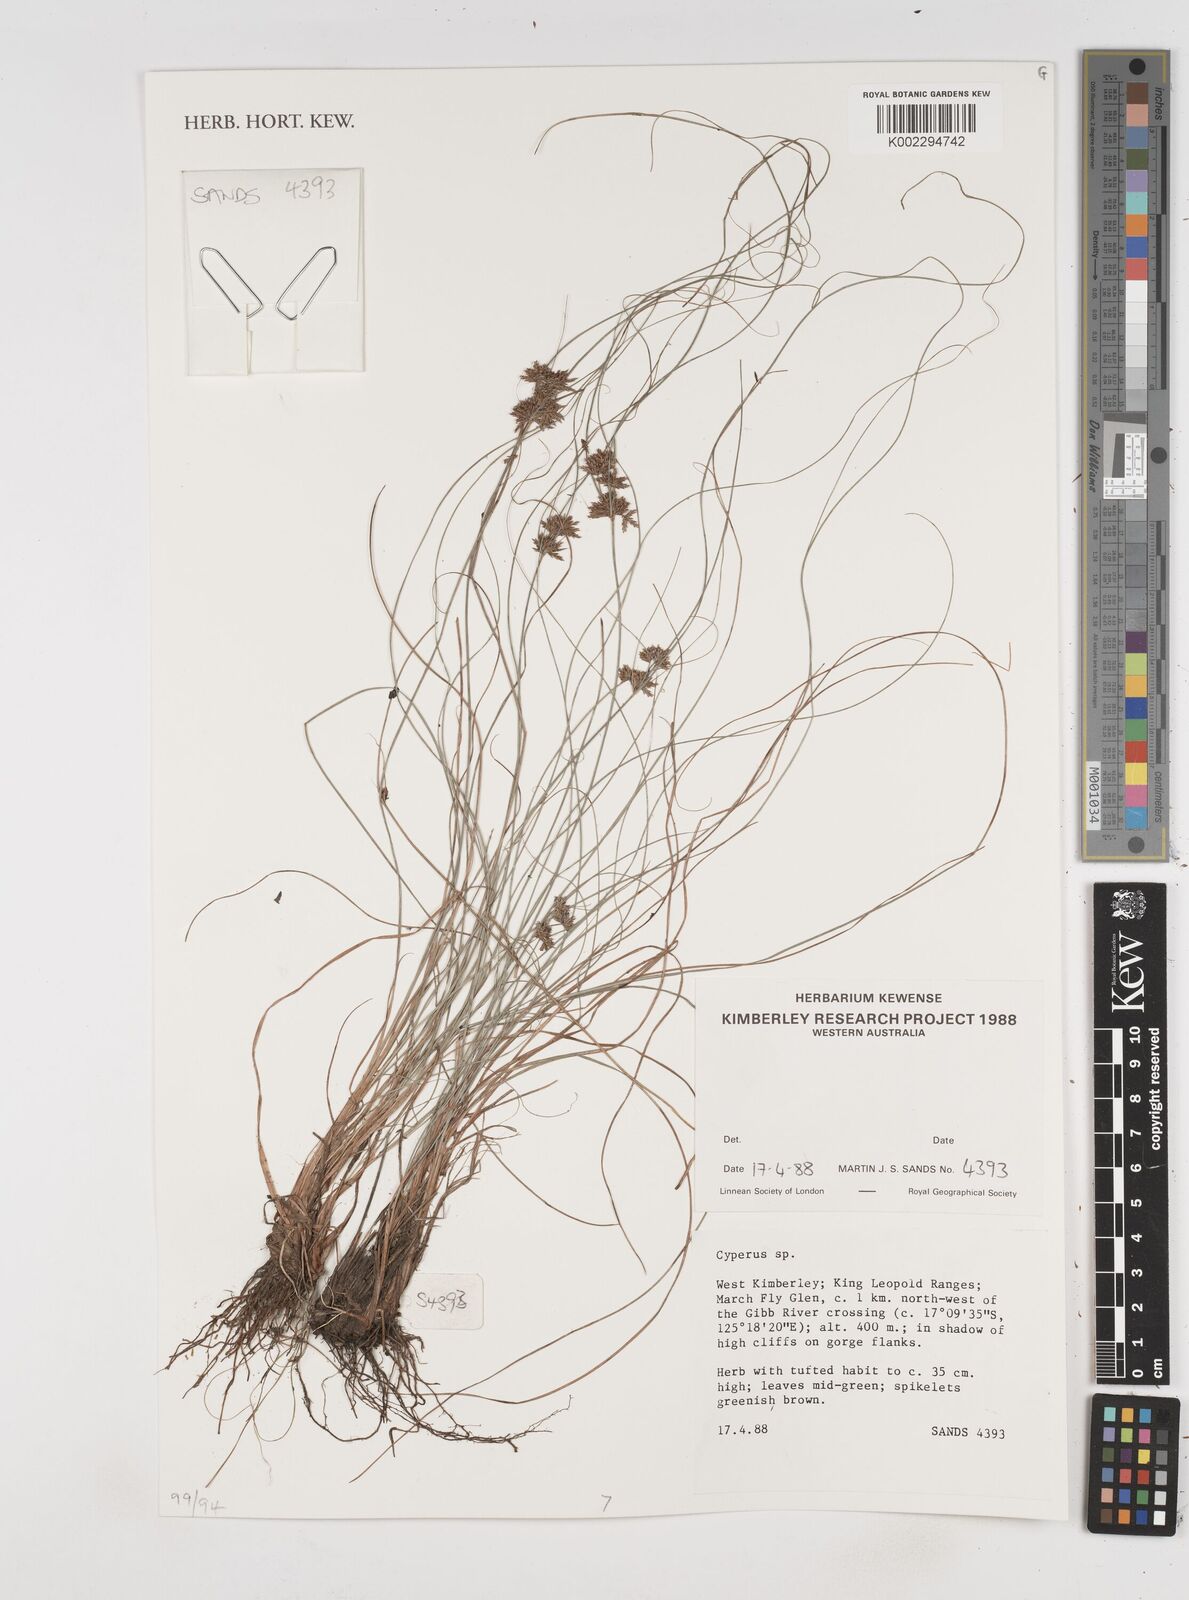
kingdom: Plantae
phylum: Tracheophyta
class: Liliopsida
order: Poales
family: Cyperaceae
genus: Cyperus
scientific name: Cyperus
